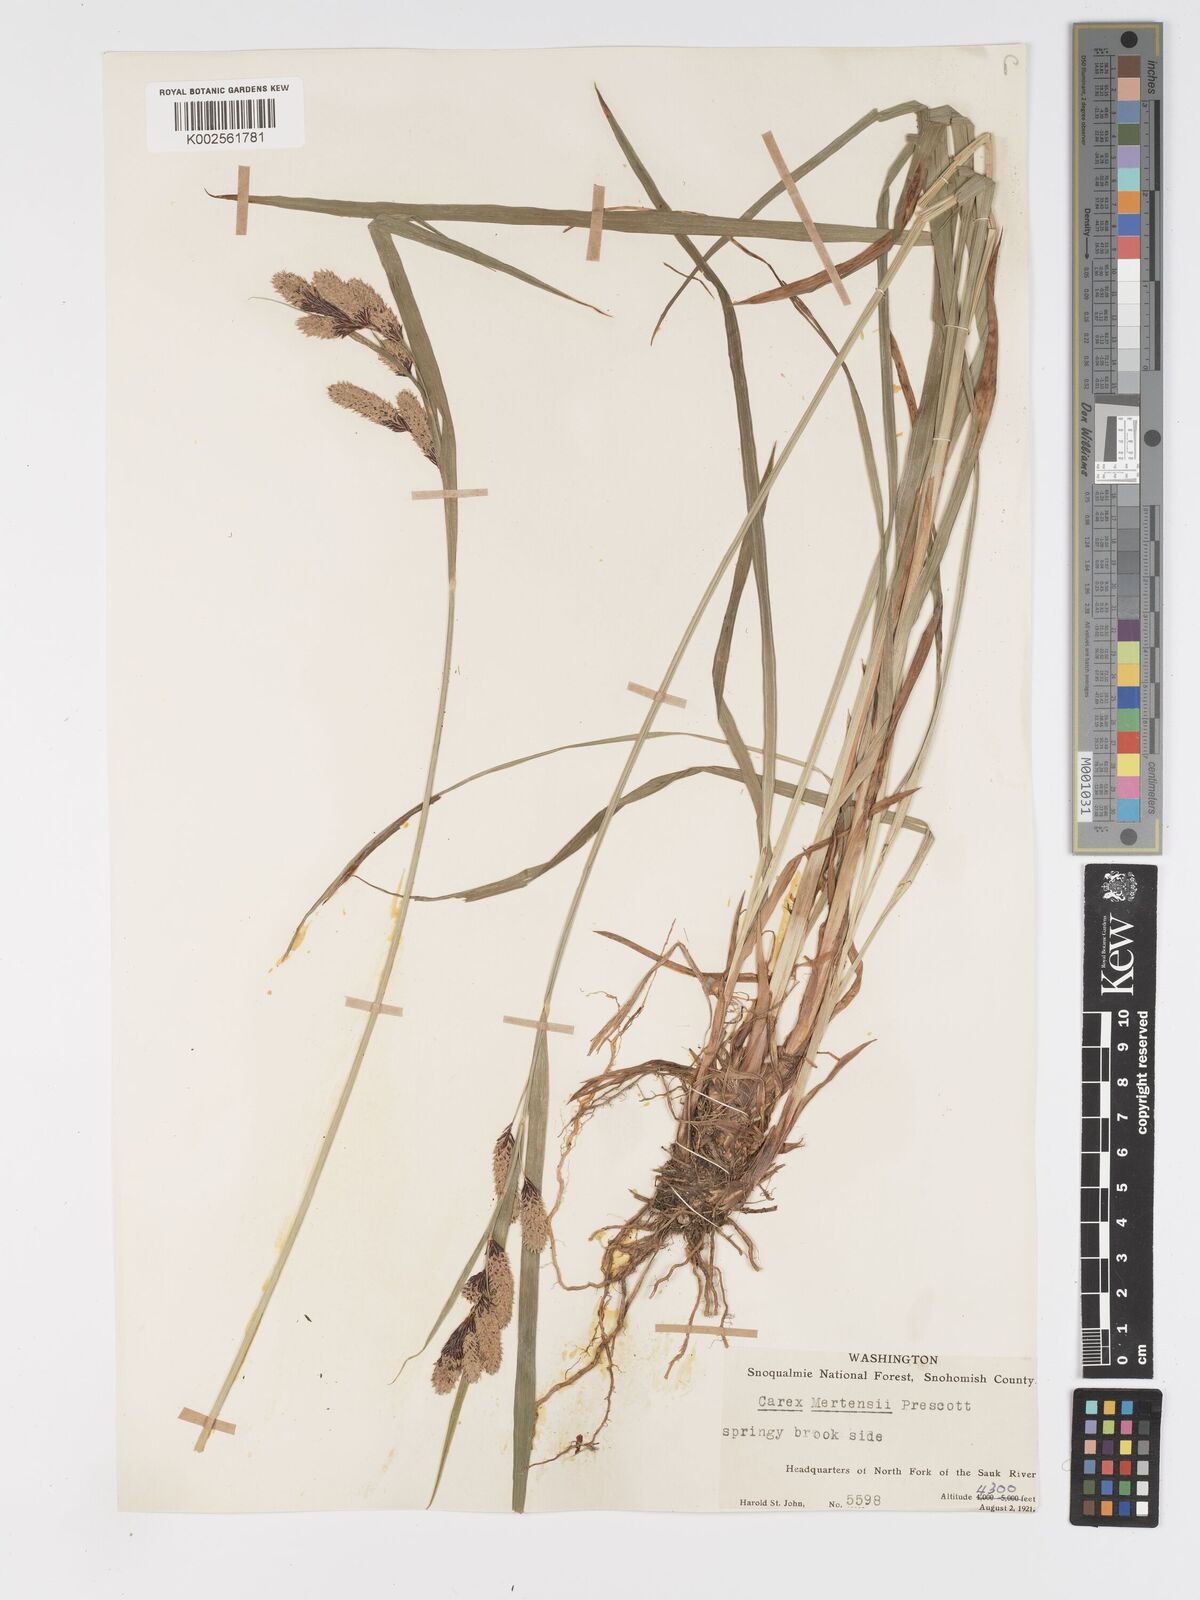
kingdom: Plantae
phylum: Tracheophyta
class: Liliopsida
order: Poales
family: Cyperaceae
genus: Carex
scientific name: Carex mertensii
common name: Mertens' sedge
